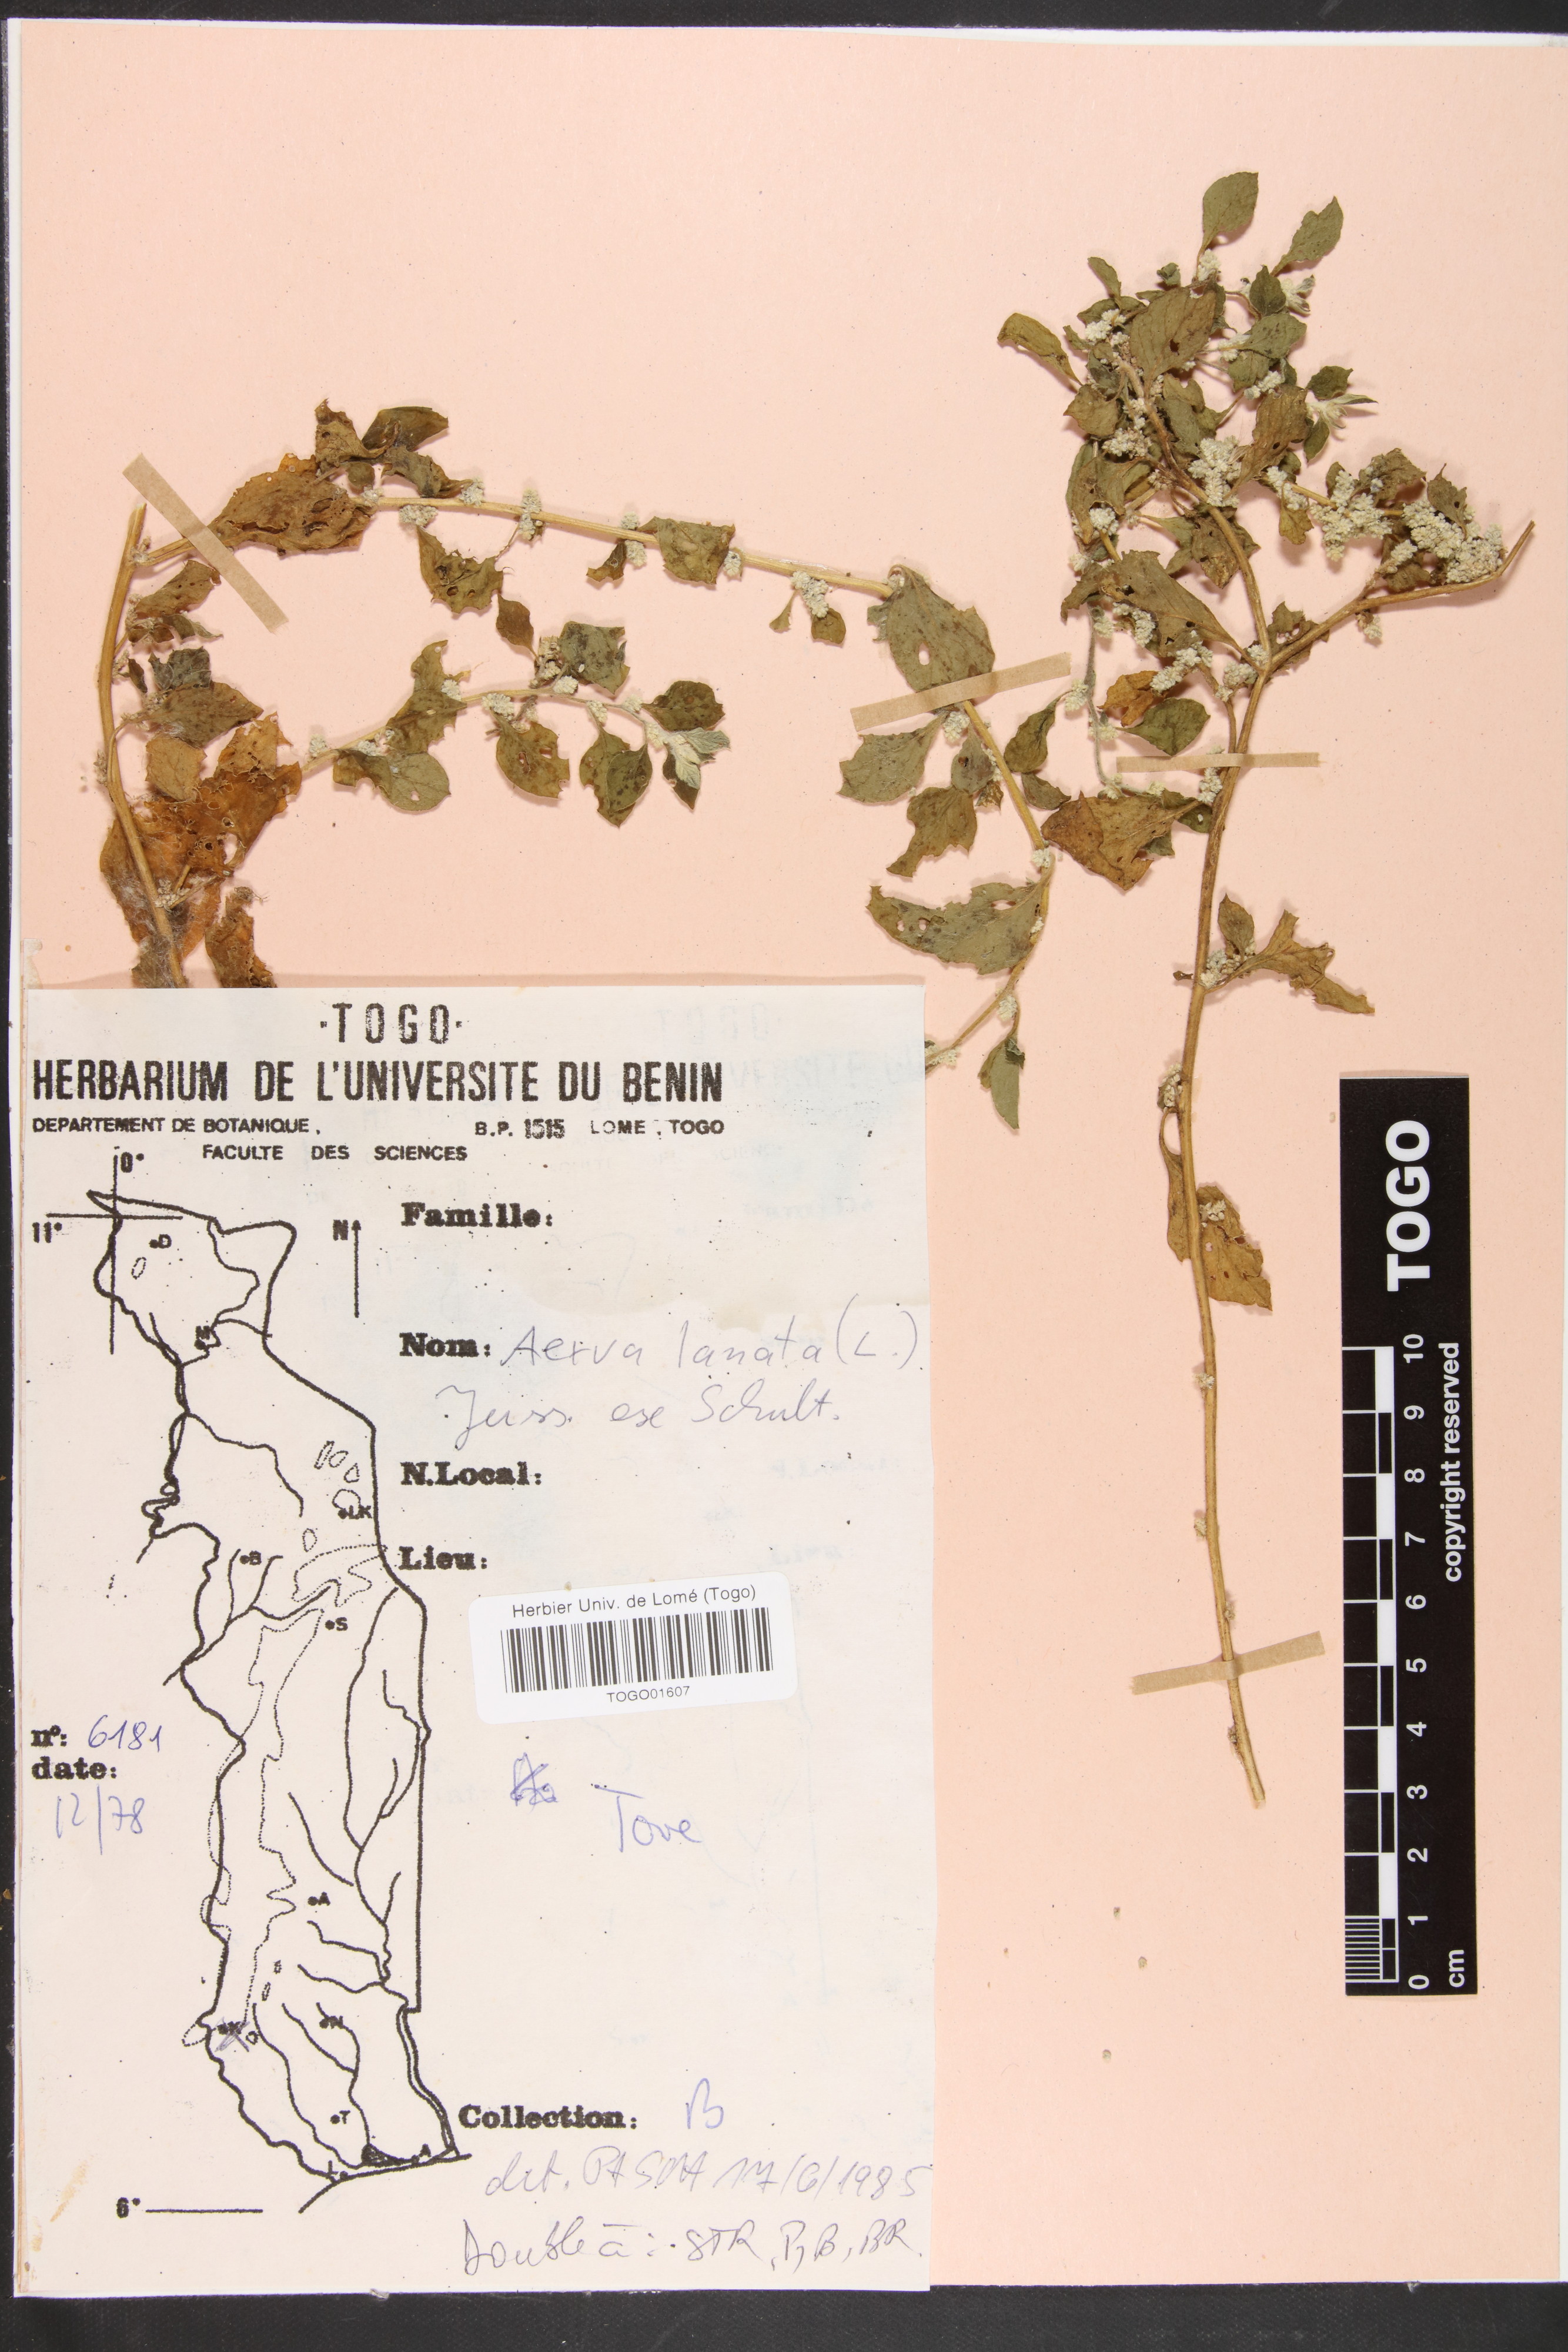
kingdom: Plantae
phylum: Tracheophyta
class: Magnoliopsida
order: Caryophyllales
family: Amaranthaceae
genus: Ouret
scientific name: Ouret lanata
